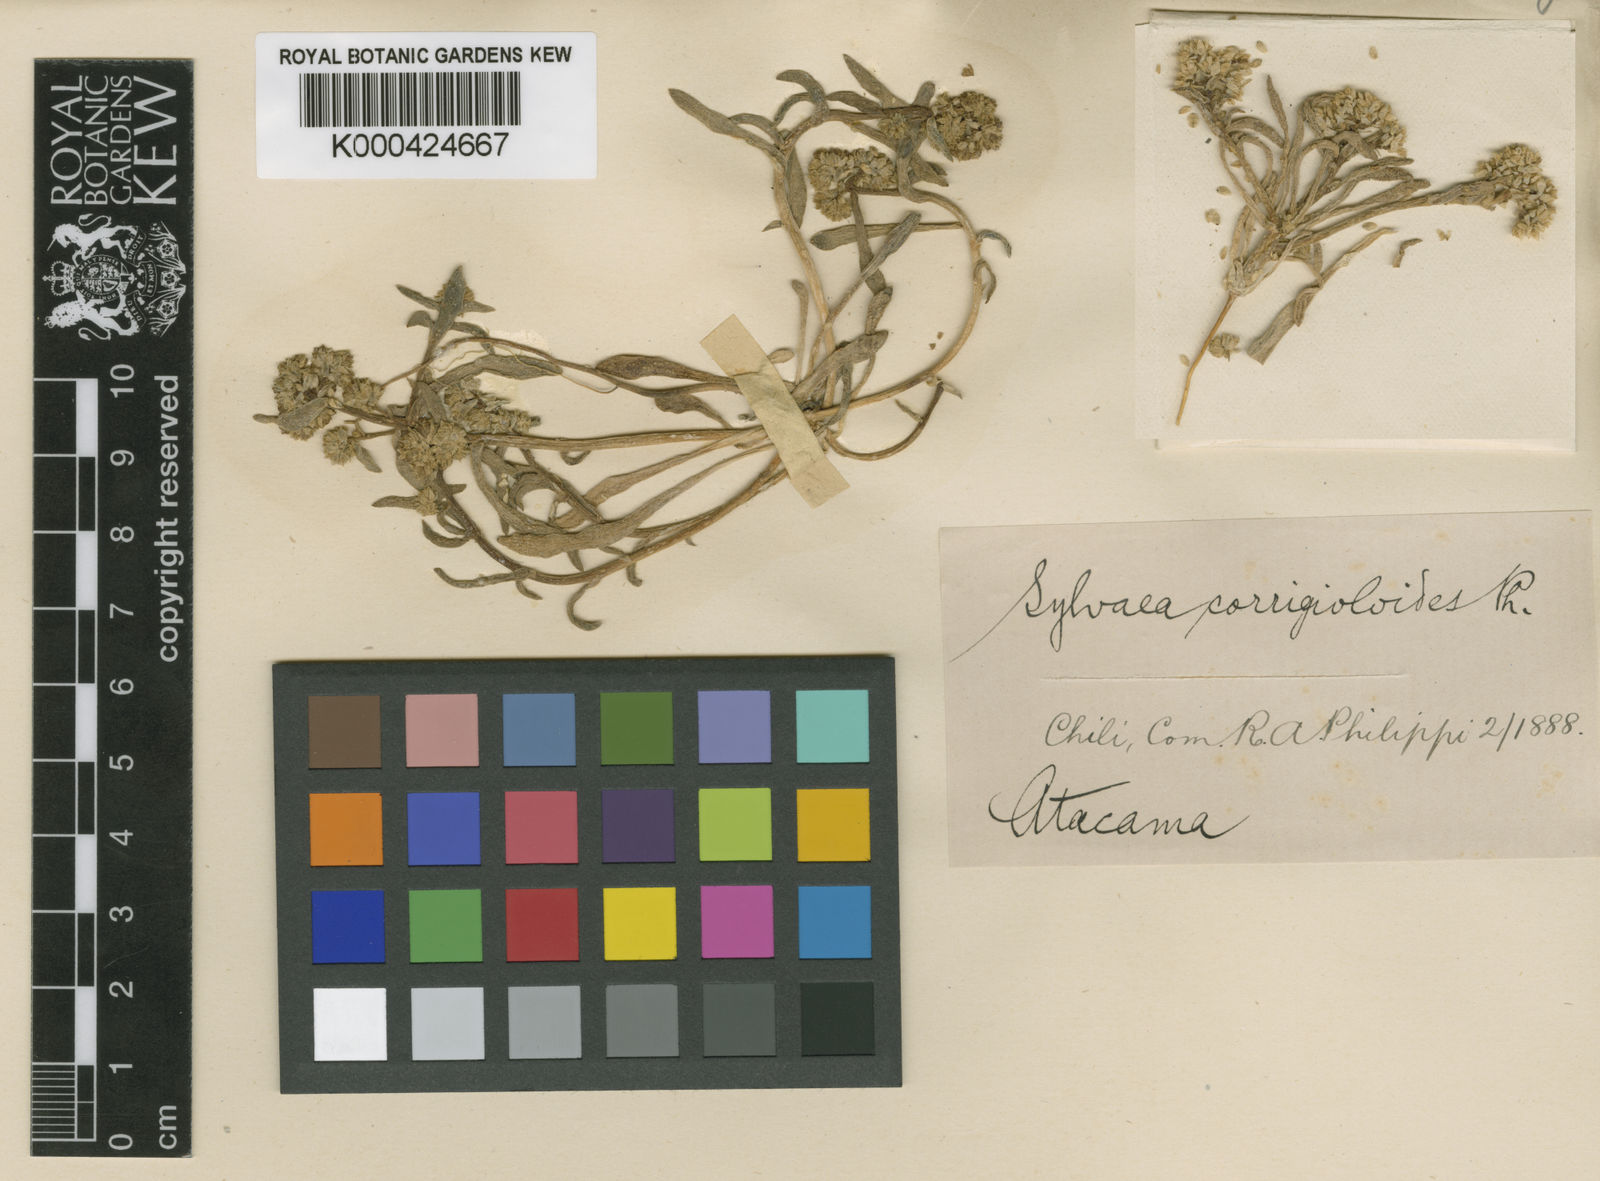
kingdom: Plantae
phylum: Tracheophyta
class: Magnoliopsida
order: Caryophyllales
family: Montiaceae
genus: Philippiamra
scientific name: Philippiamra amarantoides
